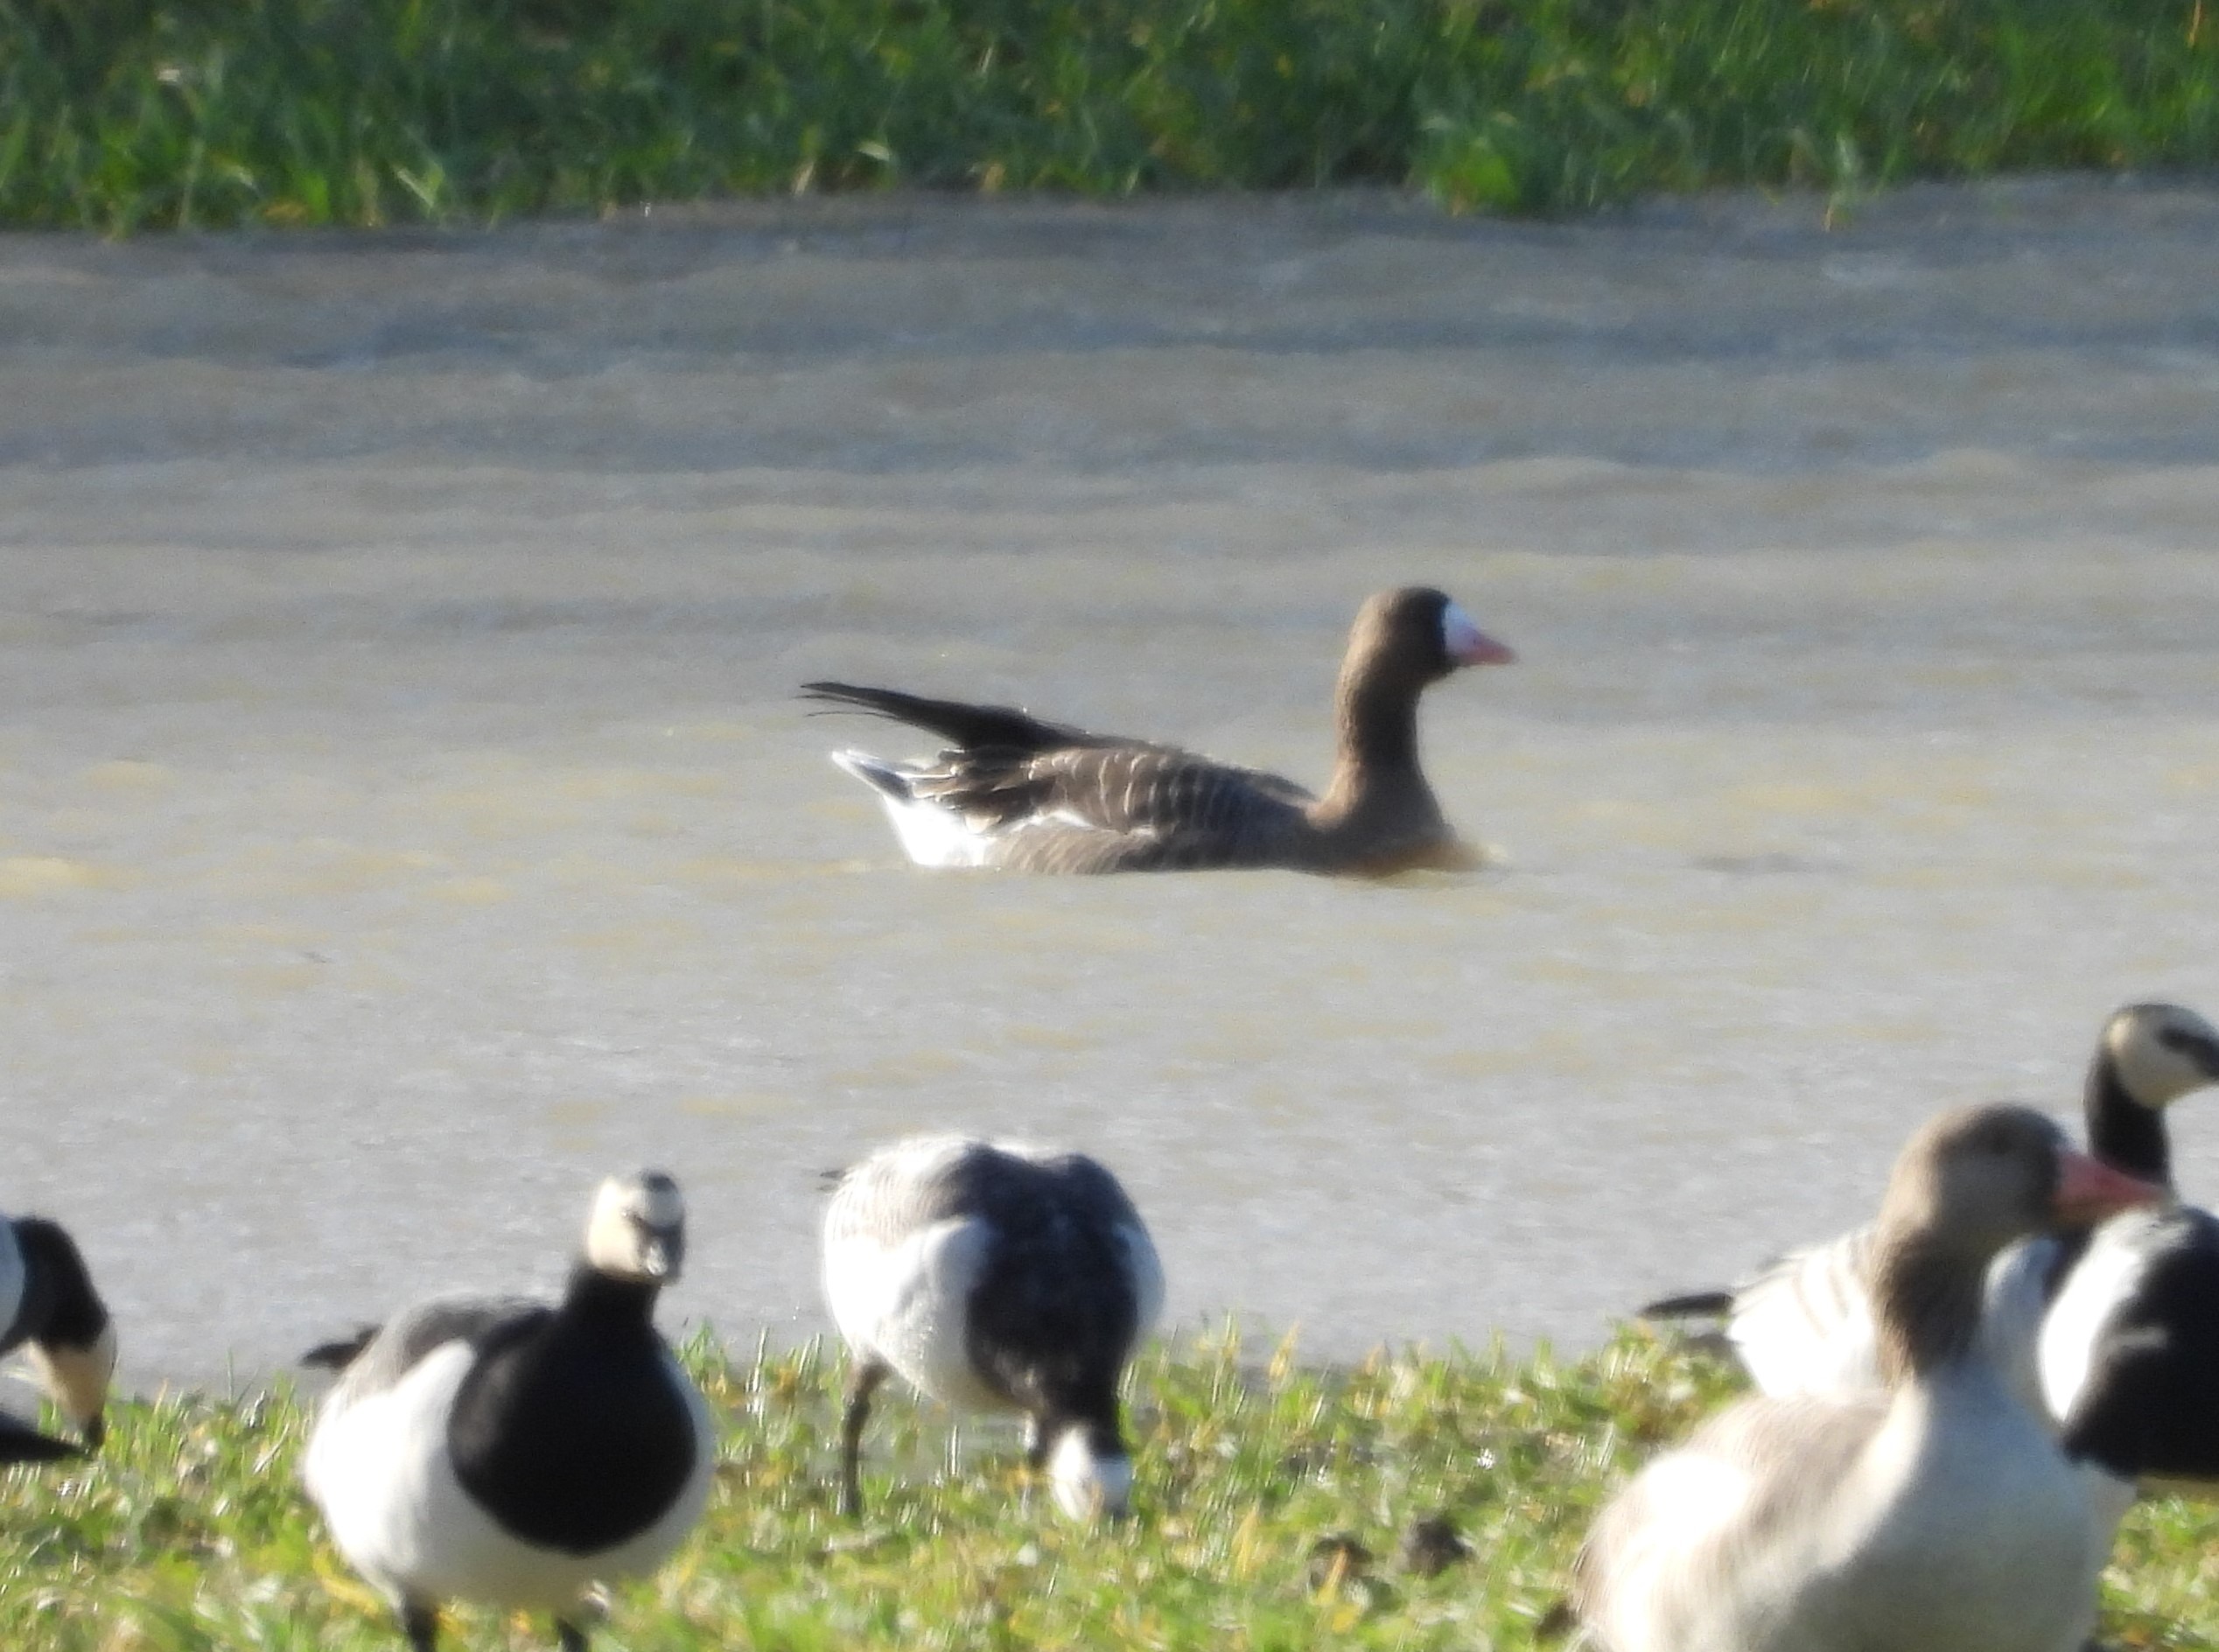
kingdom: Animalia
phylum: Chordata
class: Aves
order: Anseriformes
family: Anatidae
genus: Anser
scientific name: Anser albifrons
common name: Blisgås
